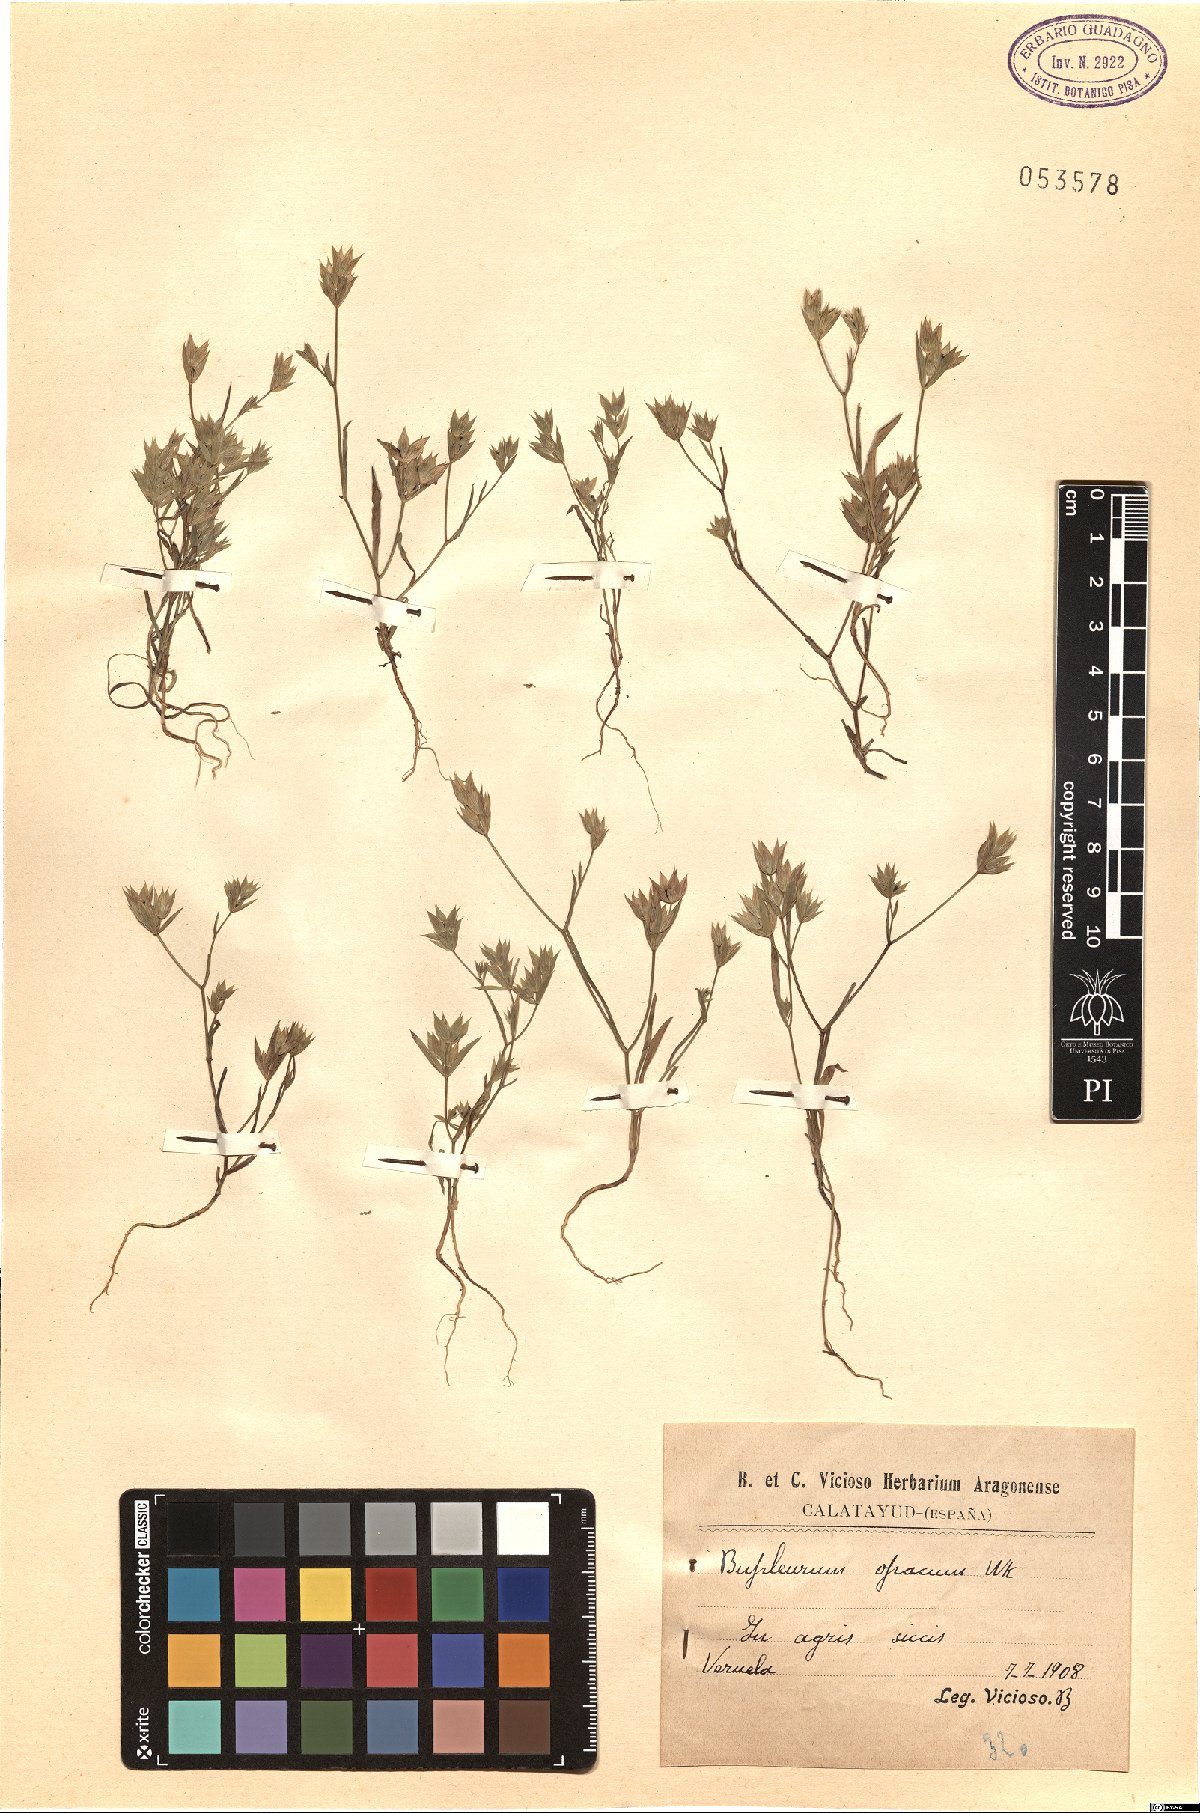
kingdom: Plantae
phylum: Tracheophyta
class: Magnoliopsida
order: Apiales
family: Apiaceae
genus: Bupleurum
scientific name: Bupleurum baldense
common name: Small hare's-ear
